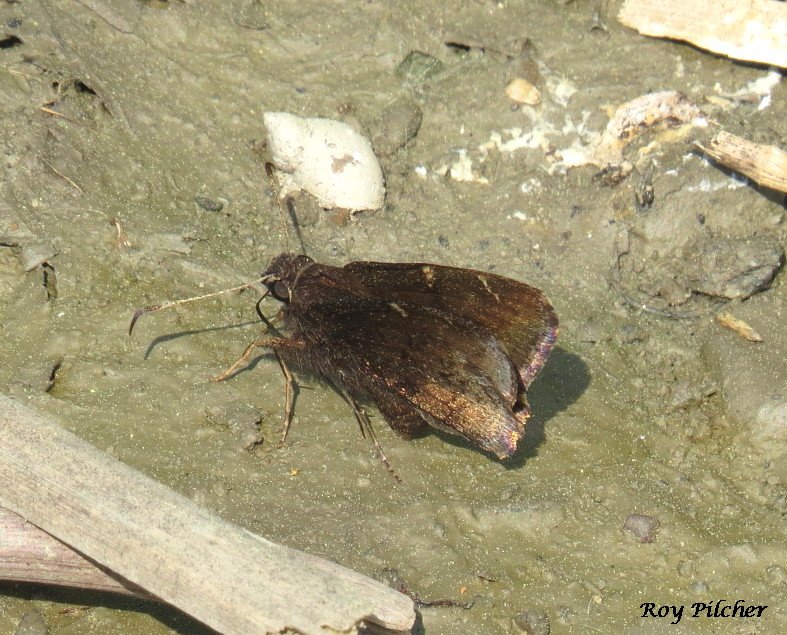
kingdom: Animalia
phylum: Arthropoda
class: Insecta
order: Lepidoptera
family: Hesperiidae
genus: Autochton
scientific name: Autochton
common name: Northern Cloudywing
